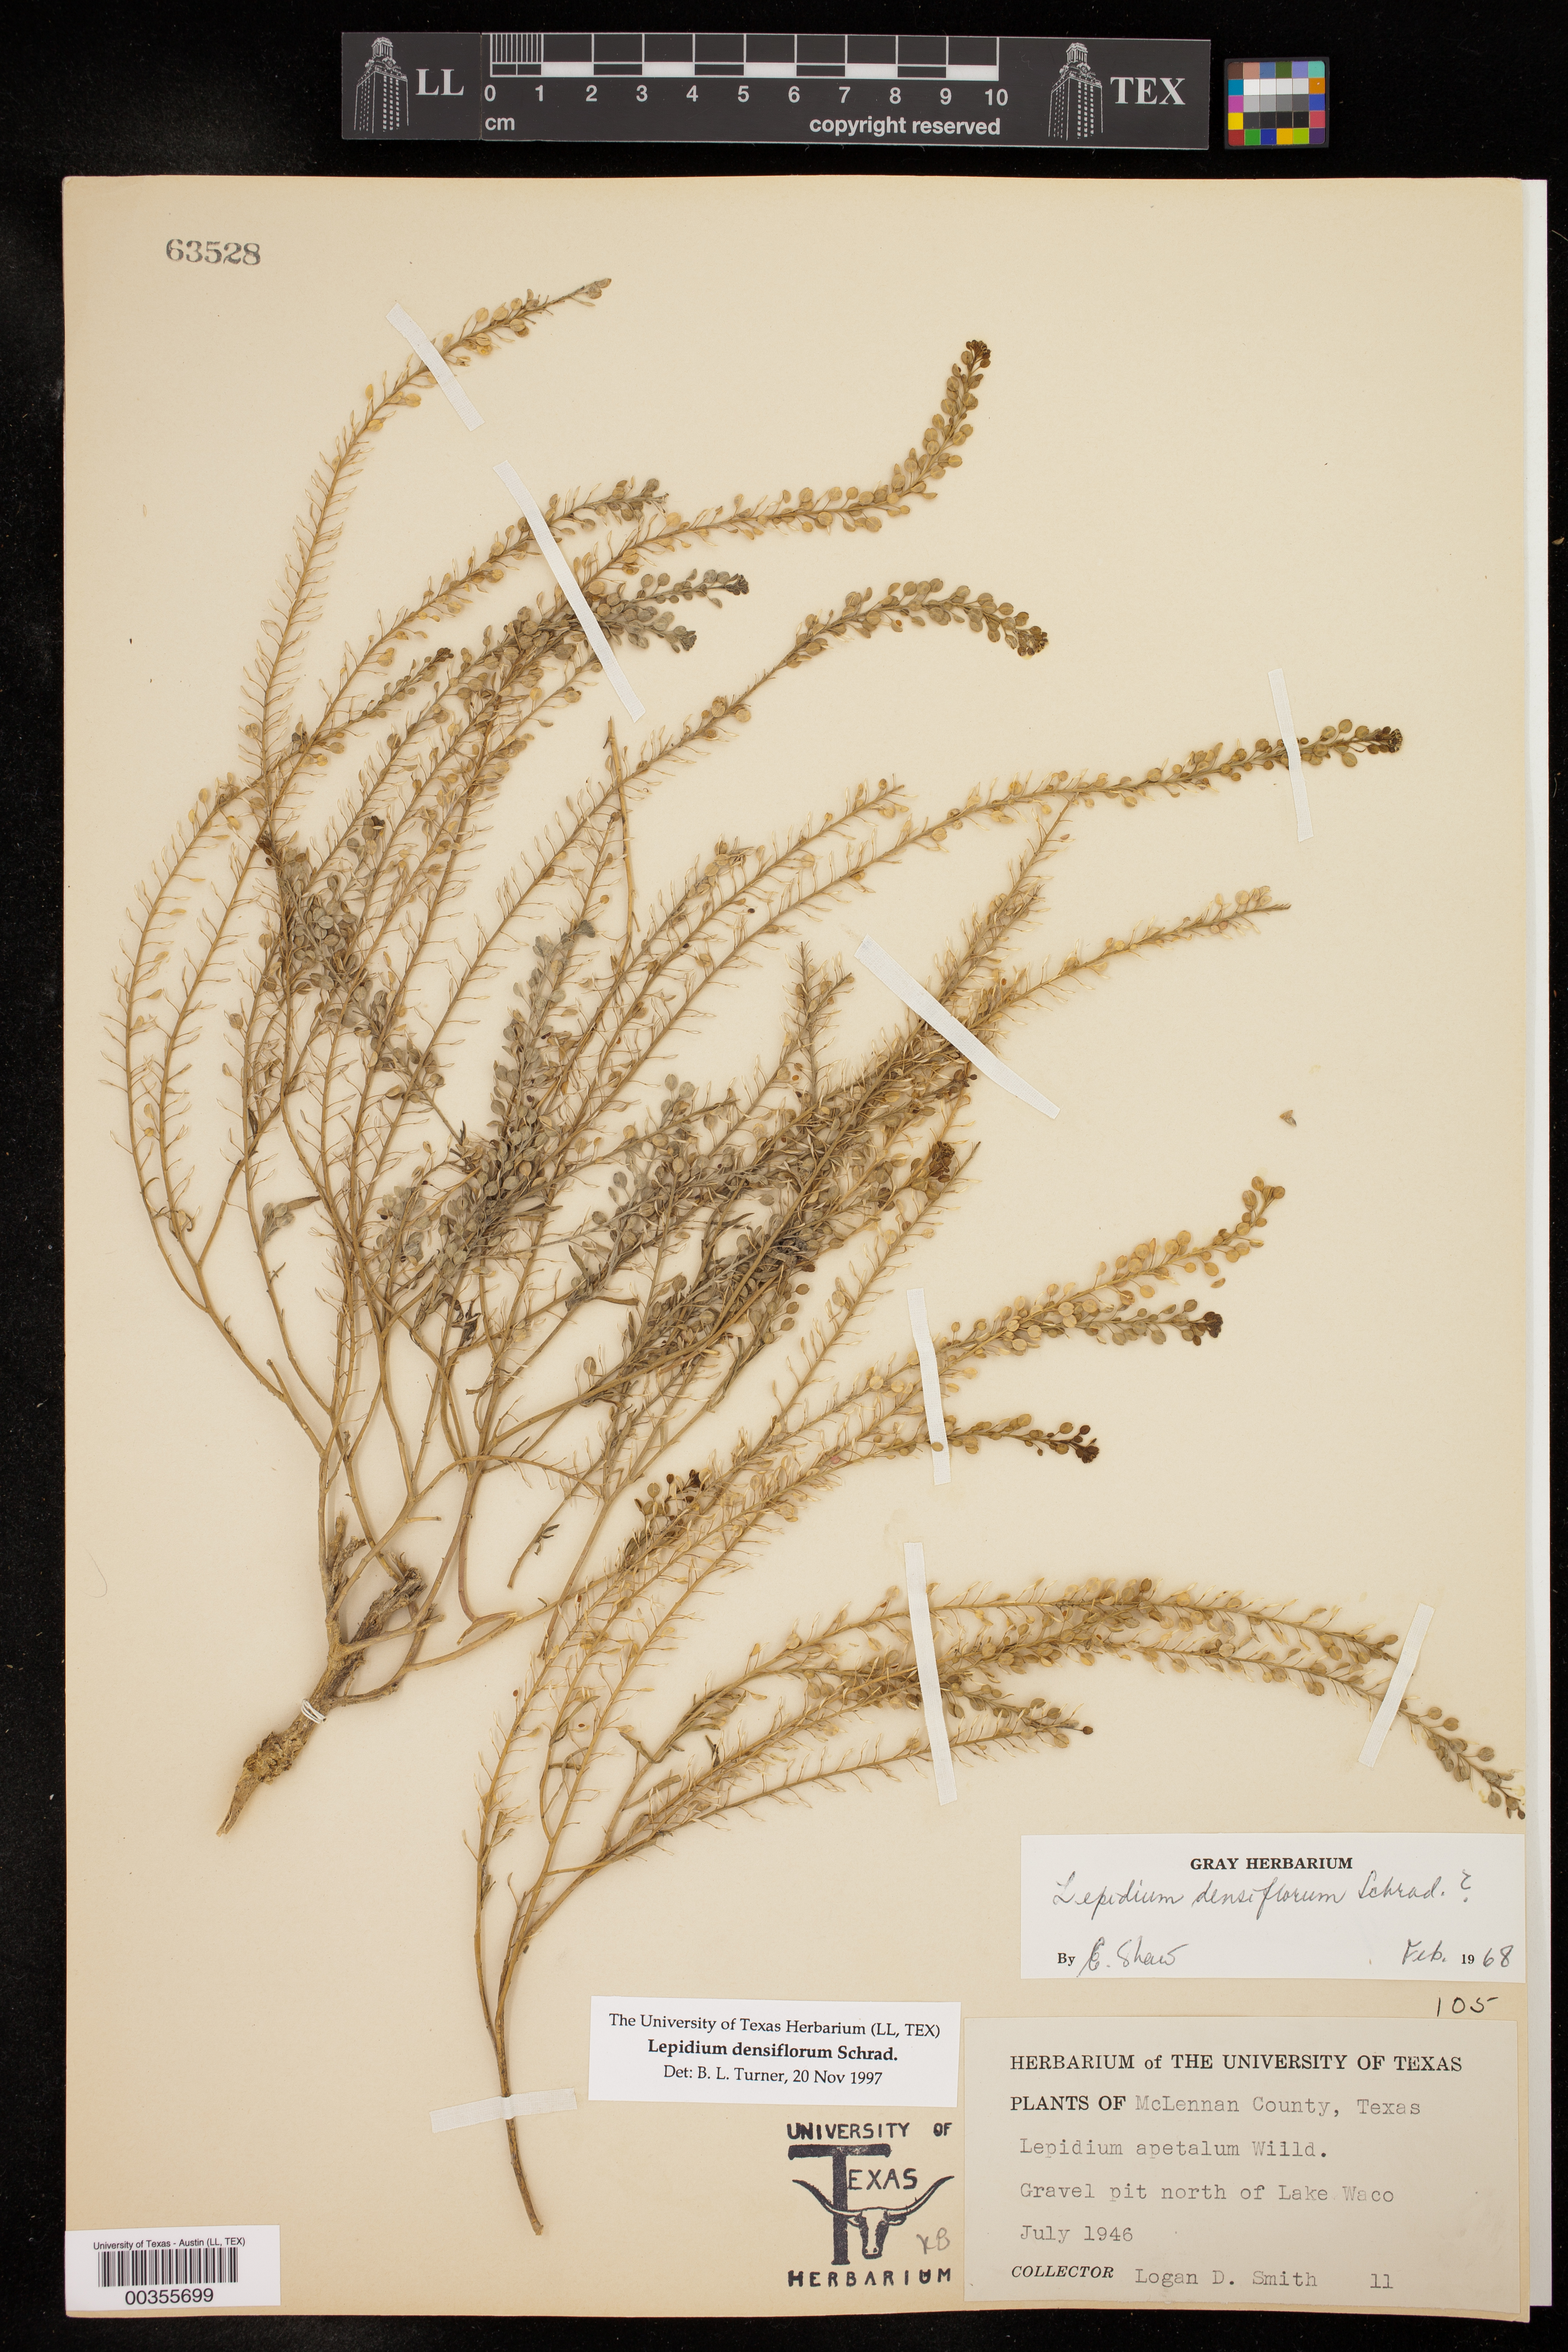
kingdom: Plantae
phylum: Tracheophyta
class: Magnoliopsida
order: Brassicales
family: Brassicaceae
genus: Lepidium
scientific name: Lepidium densiflorum
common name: Miner's pepperwort
